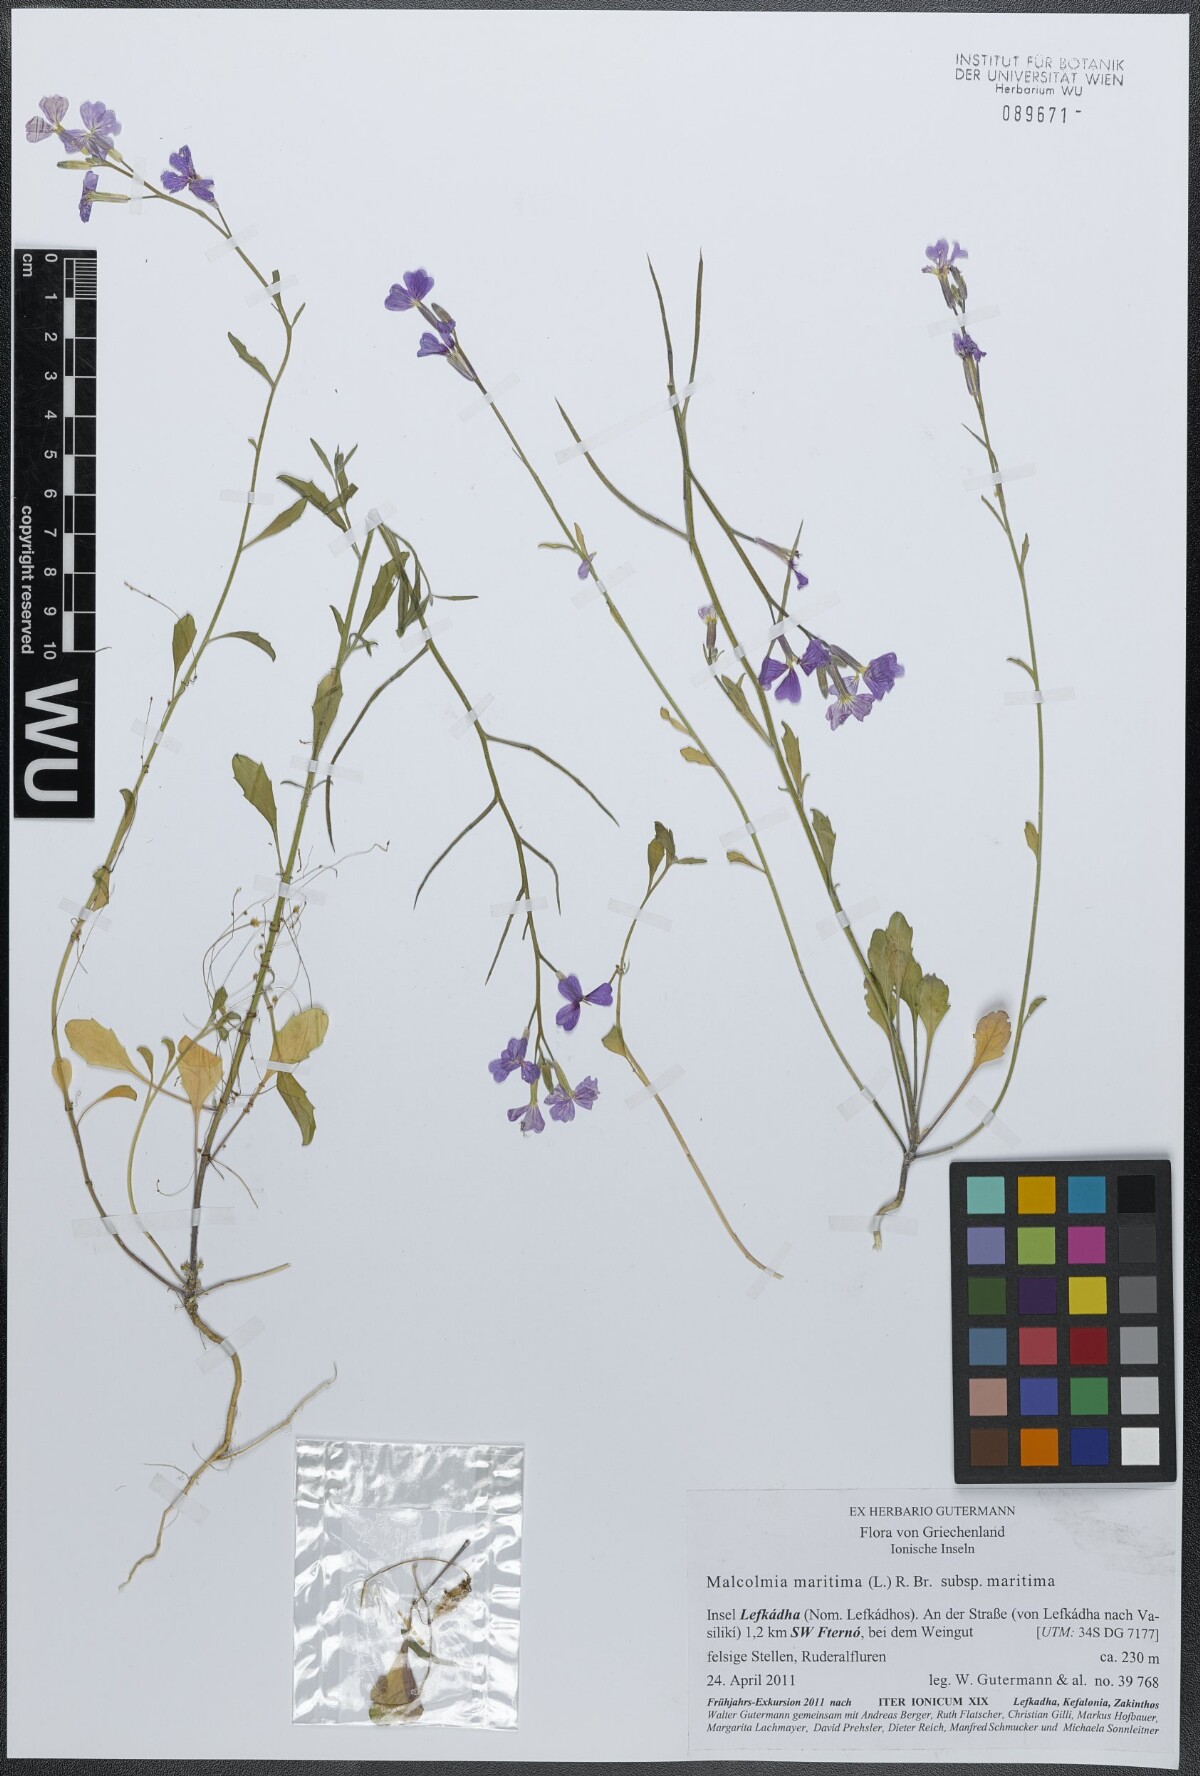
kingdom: Plantae
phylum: Tracheophyta
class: Magnoliopsida
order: Brassicales
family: Brassicaceae
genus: Malcolmia
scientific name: Malcolmia maritima
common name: Virginia stock
